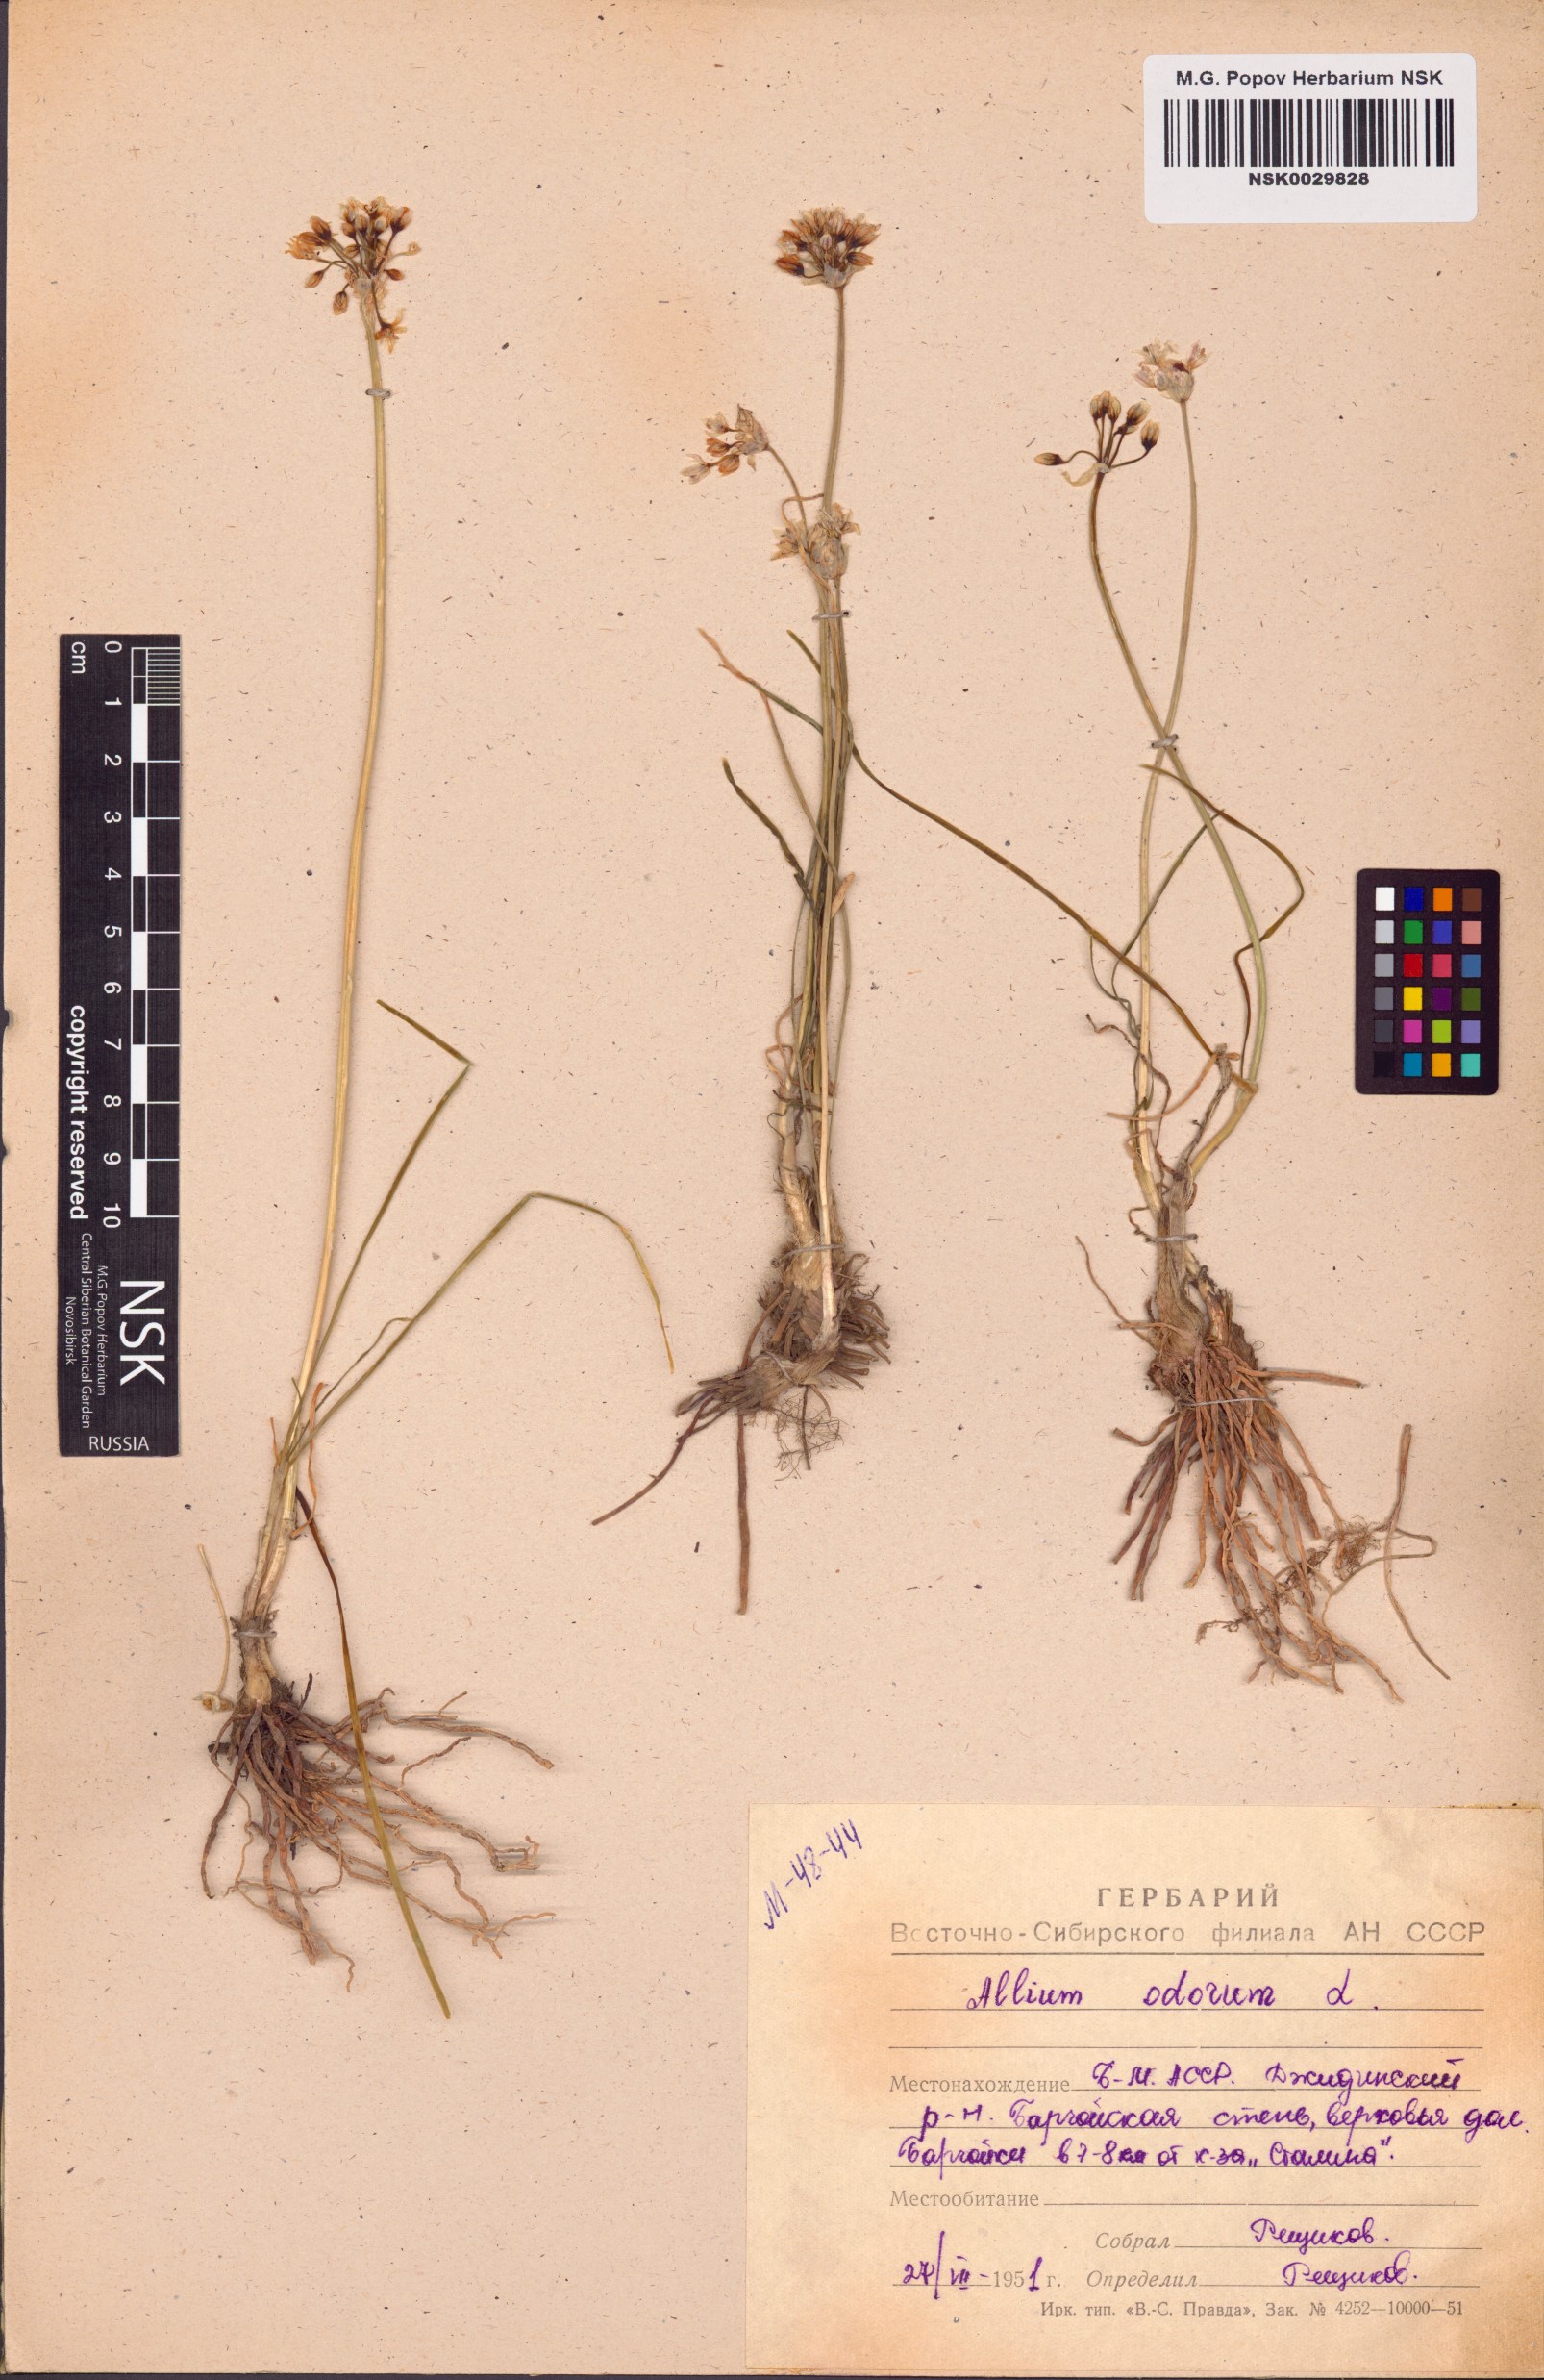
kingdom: Plantae
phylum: Tracheophyta
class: Liliopsida
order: Asparagales
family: Amaryllidaceae
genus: Allium
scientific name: Allium ramosum
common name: Fragrant garlic
